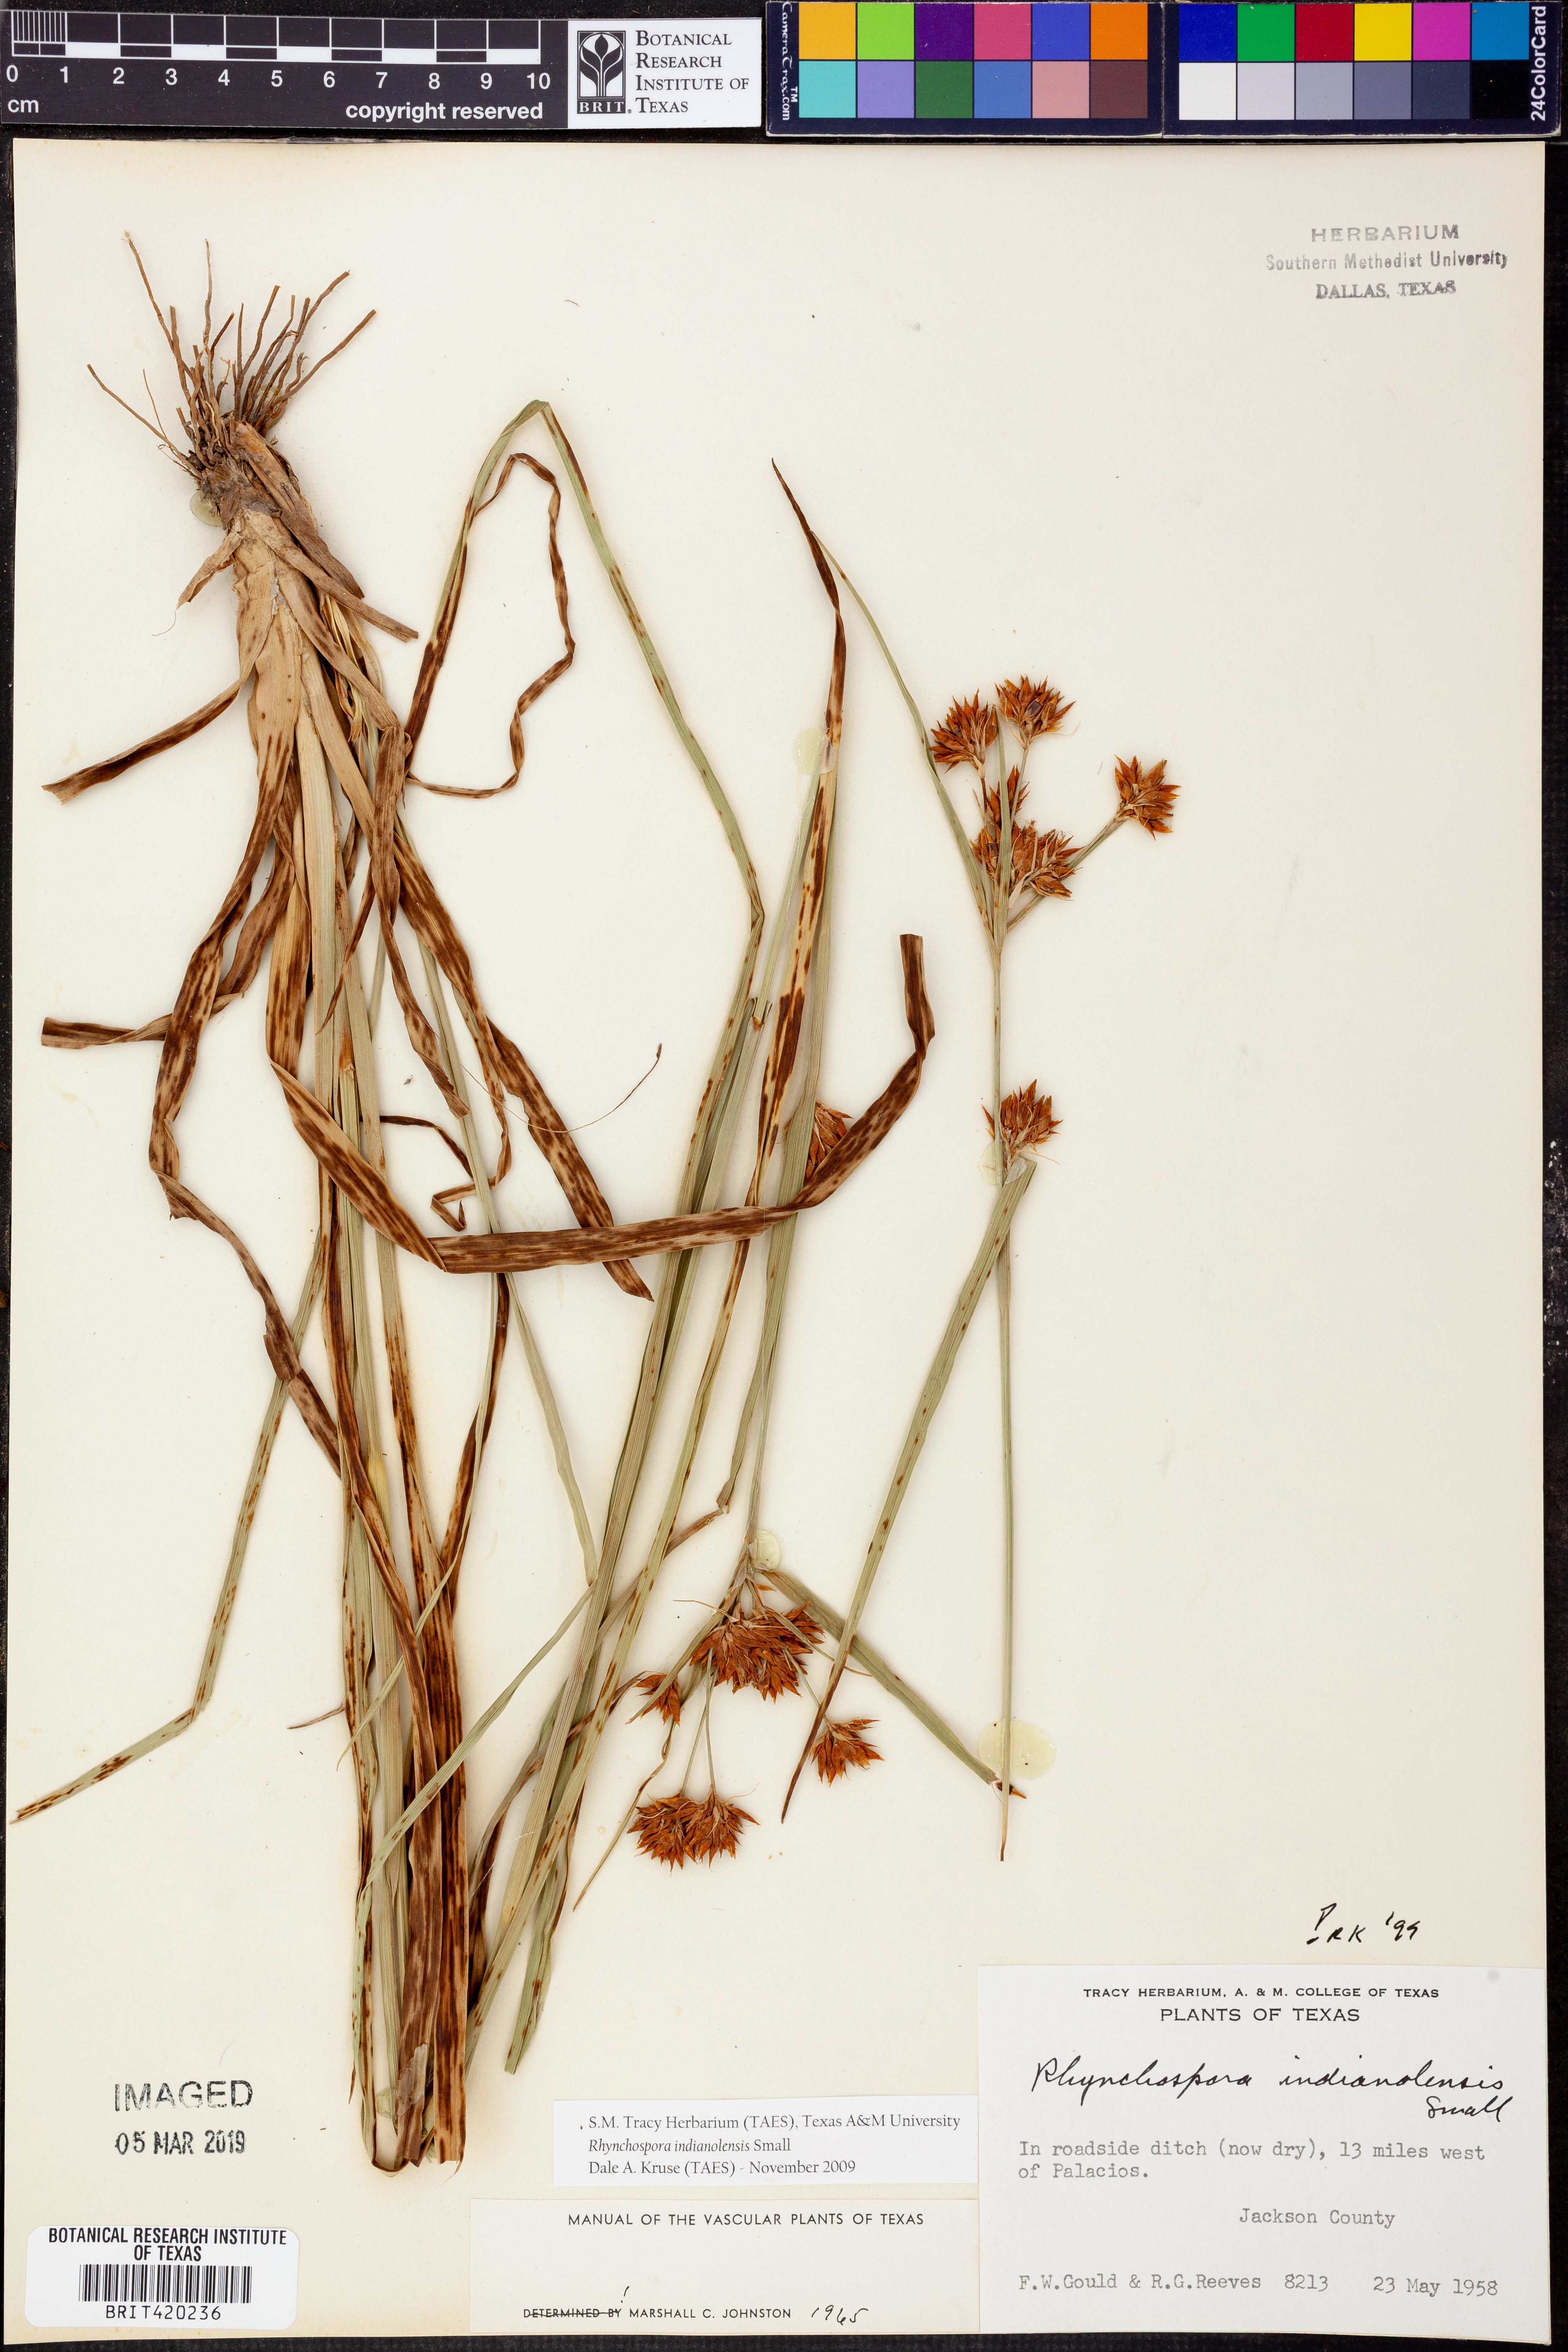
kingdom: Plantae
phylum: Tracheophyta
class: Liliopsida
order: Poales
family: Cyperaceae
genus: Rhynchospora
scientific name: Rhynchospora scutellata
